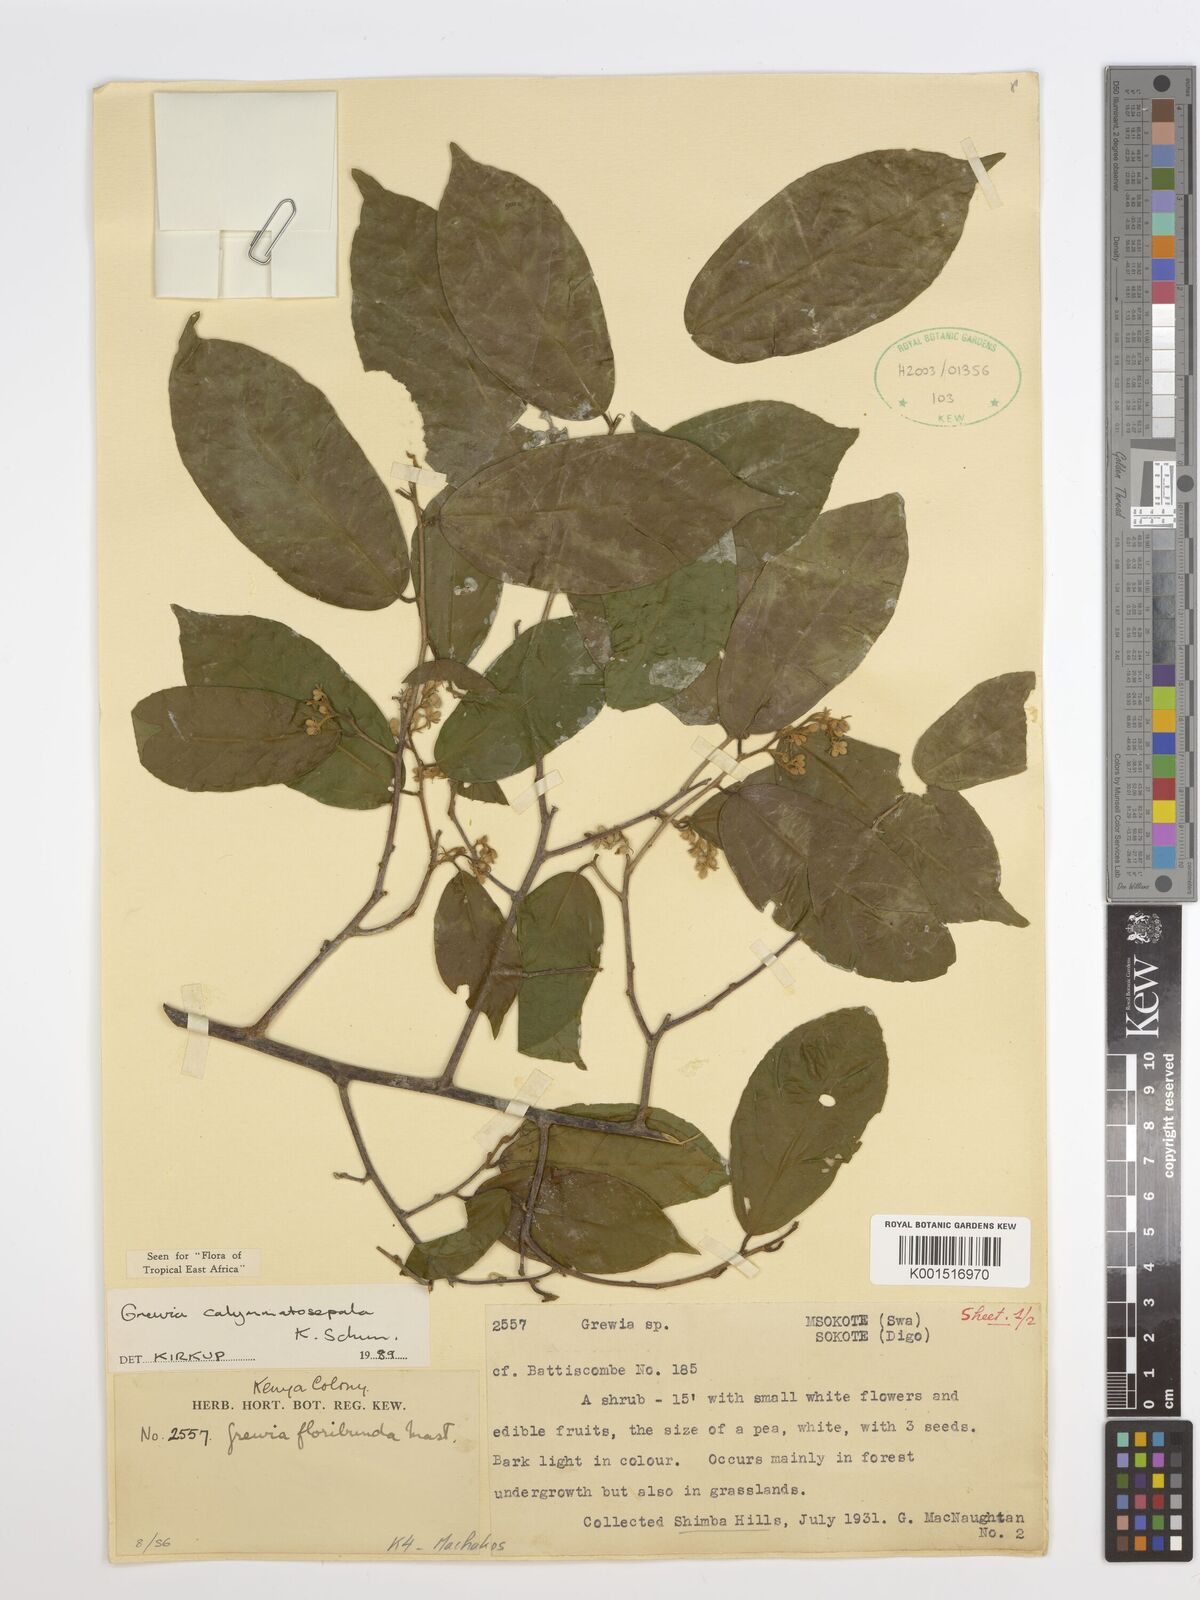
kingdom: Plantae
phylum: Tracheophyta
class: Magnoliopsida
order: Malvales
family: Malvaceae
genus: Microcos
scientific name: Microcos calymmatosepala
